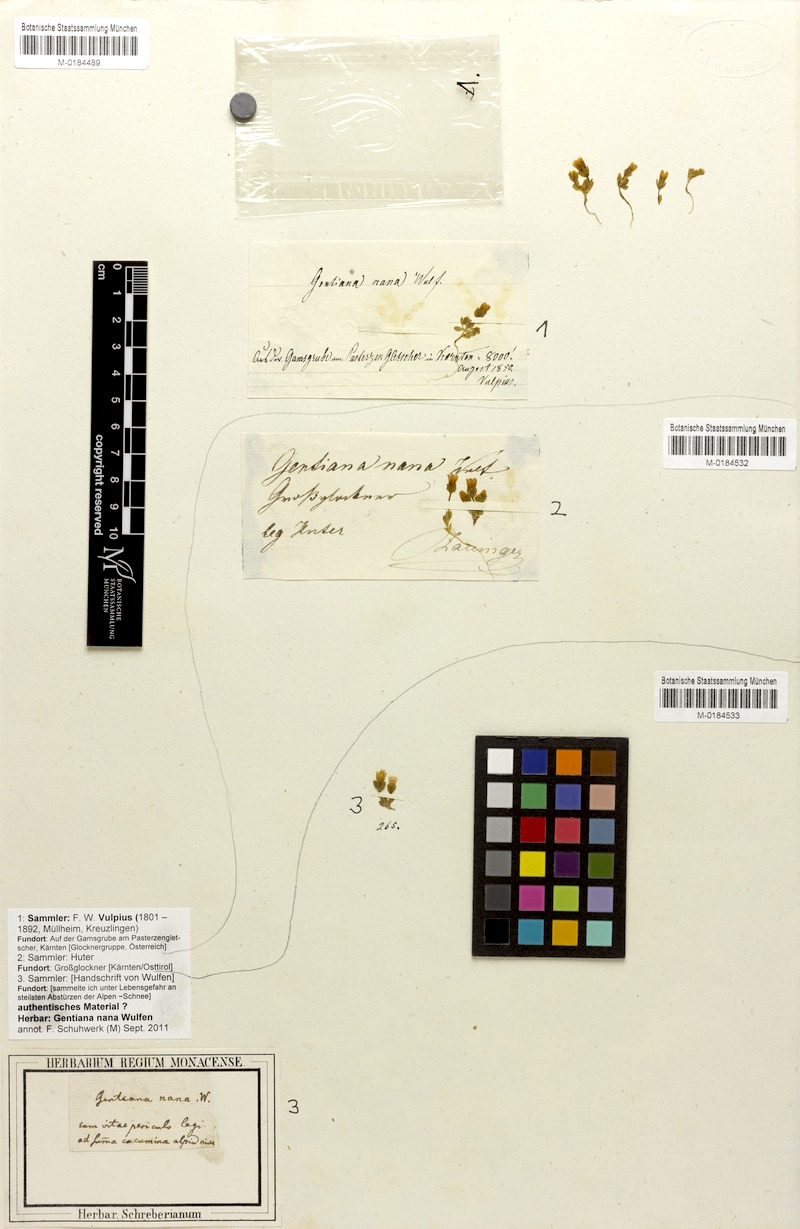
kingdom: Plantae
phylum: Tracheophyta
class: Magnoliopsida
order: Gentianales
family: Gentianaceae
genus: Comastoma
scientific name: Comastoma nanum
